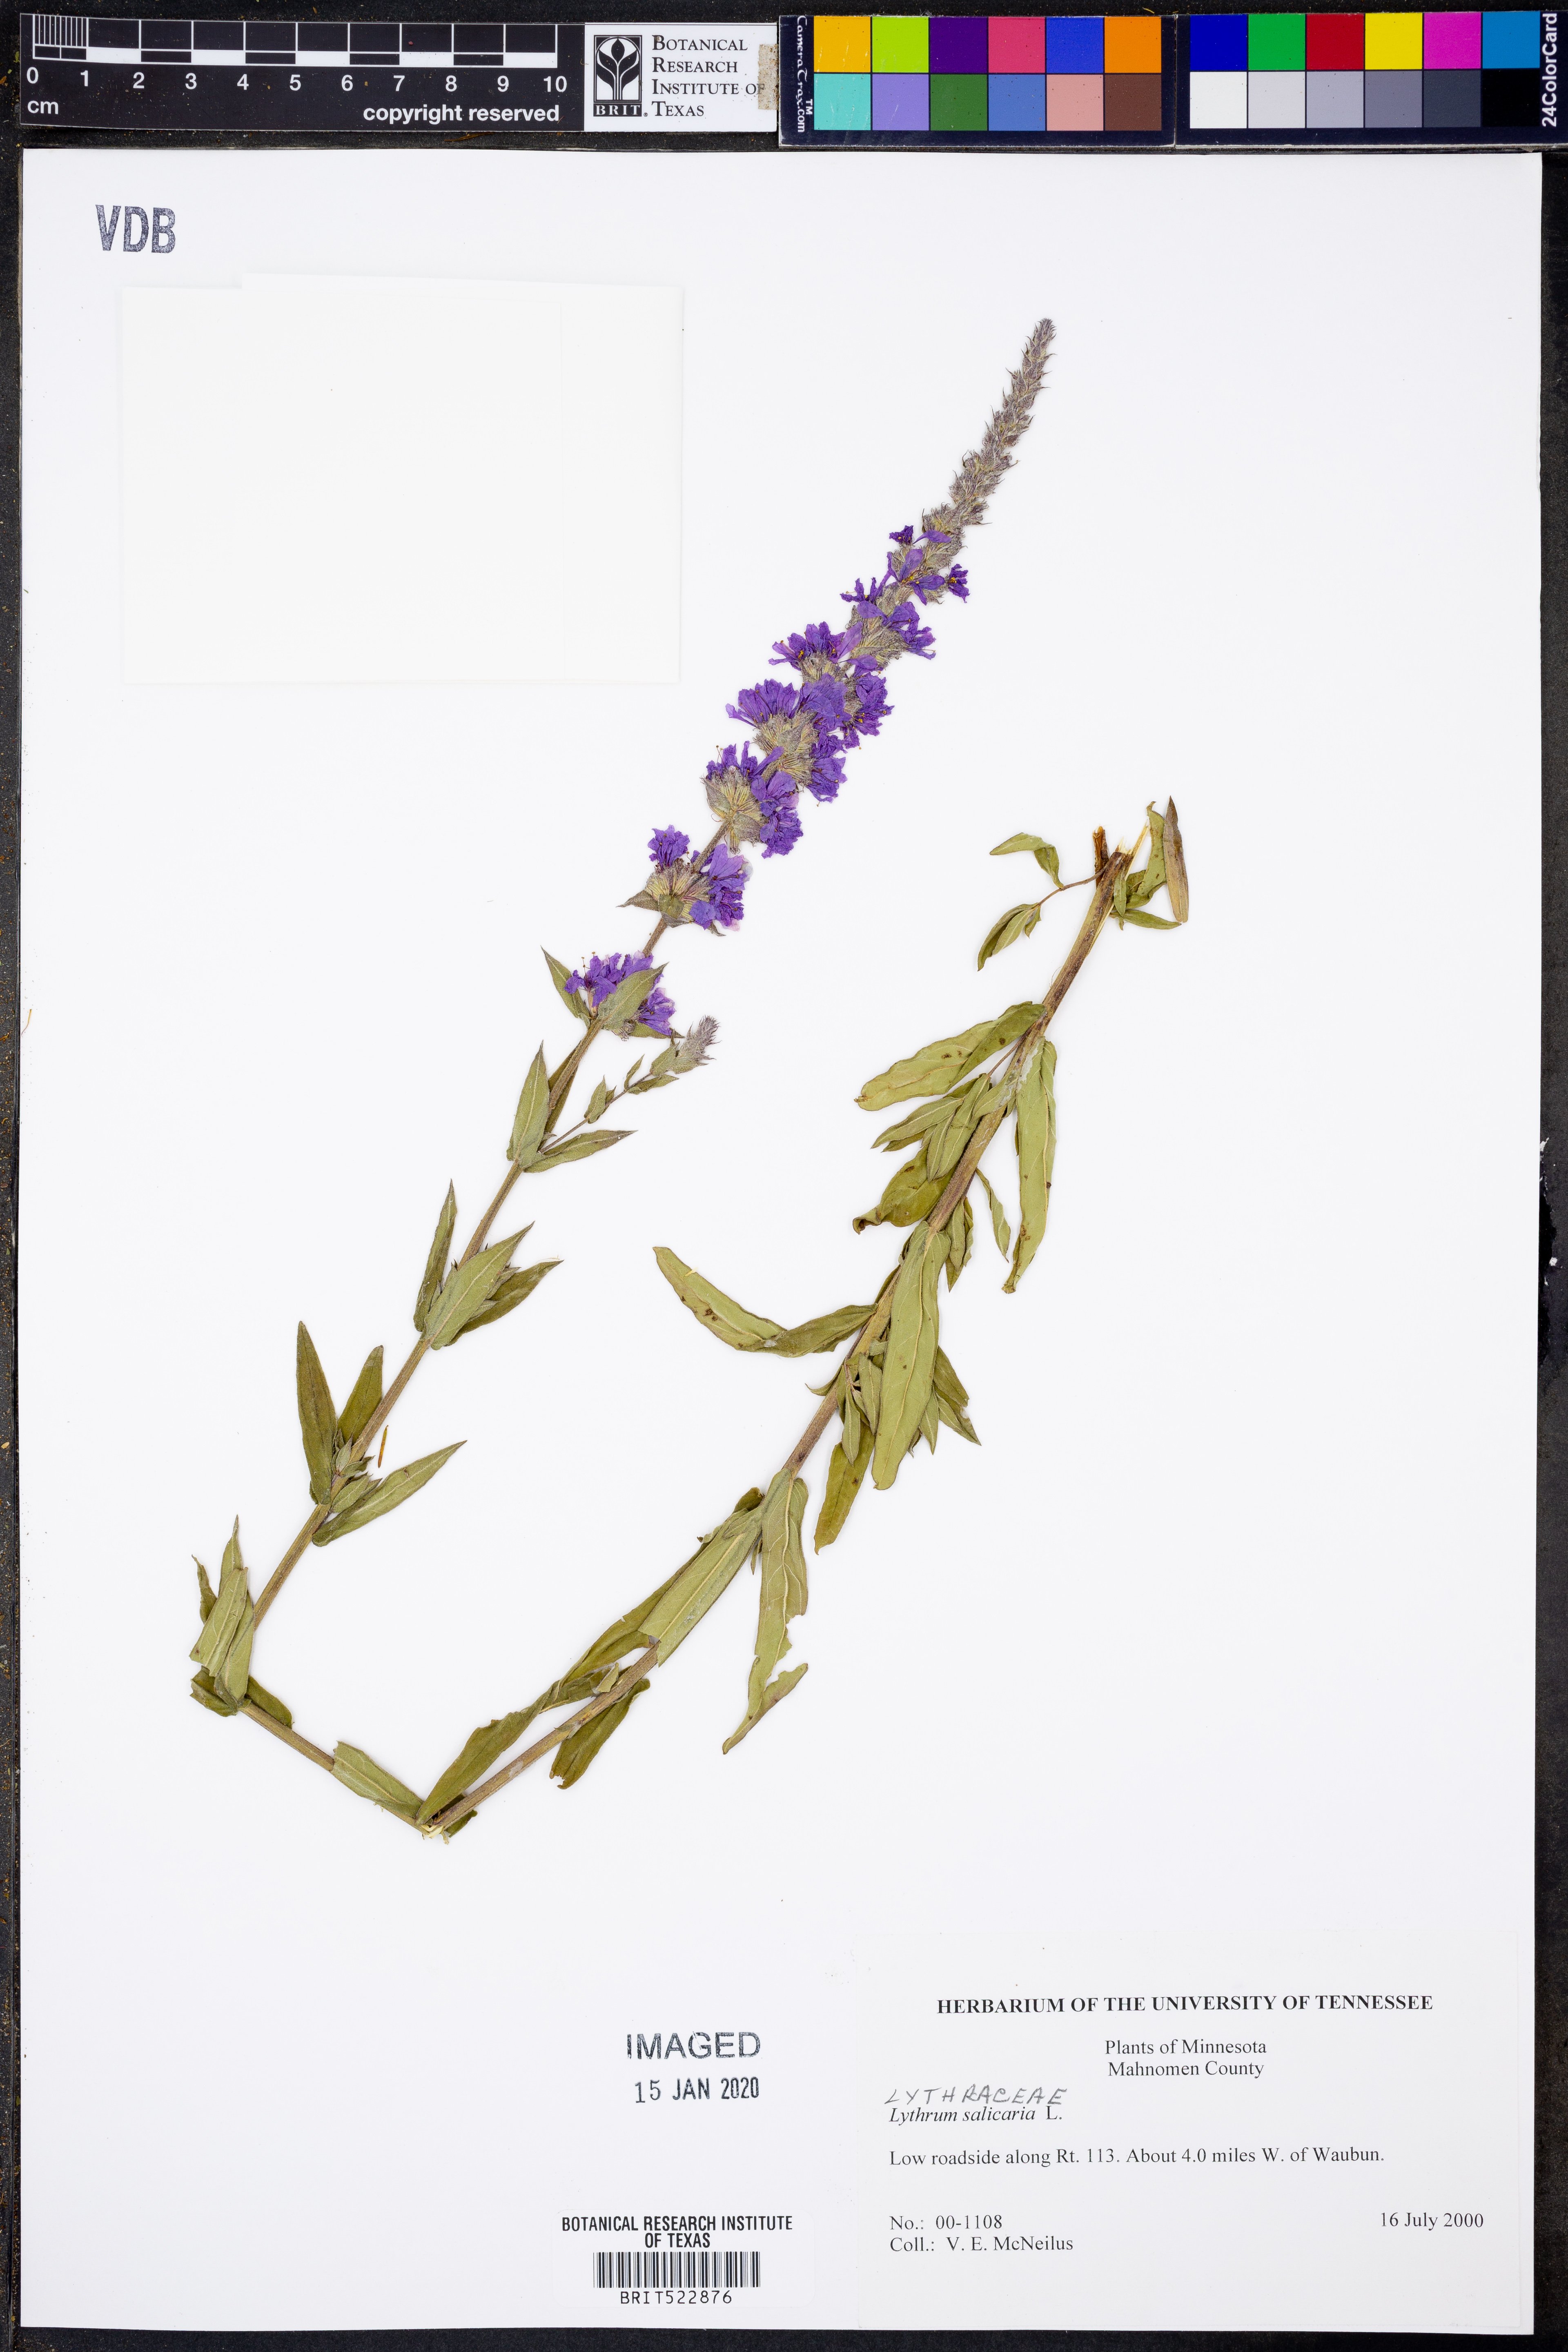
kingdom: Plantae
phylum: Tracheophyta
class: Magnoliopsida
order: Myrtales
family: Lythraceae
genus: Lythrum
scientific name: Lythrum salicaria
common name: Purple loosestrife
